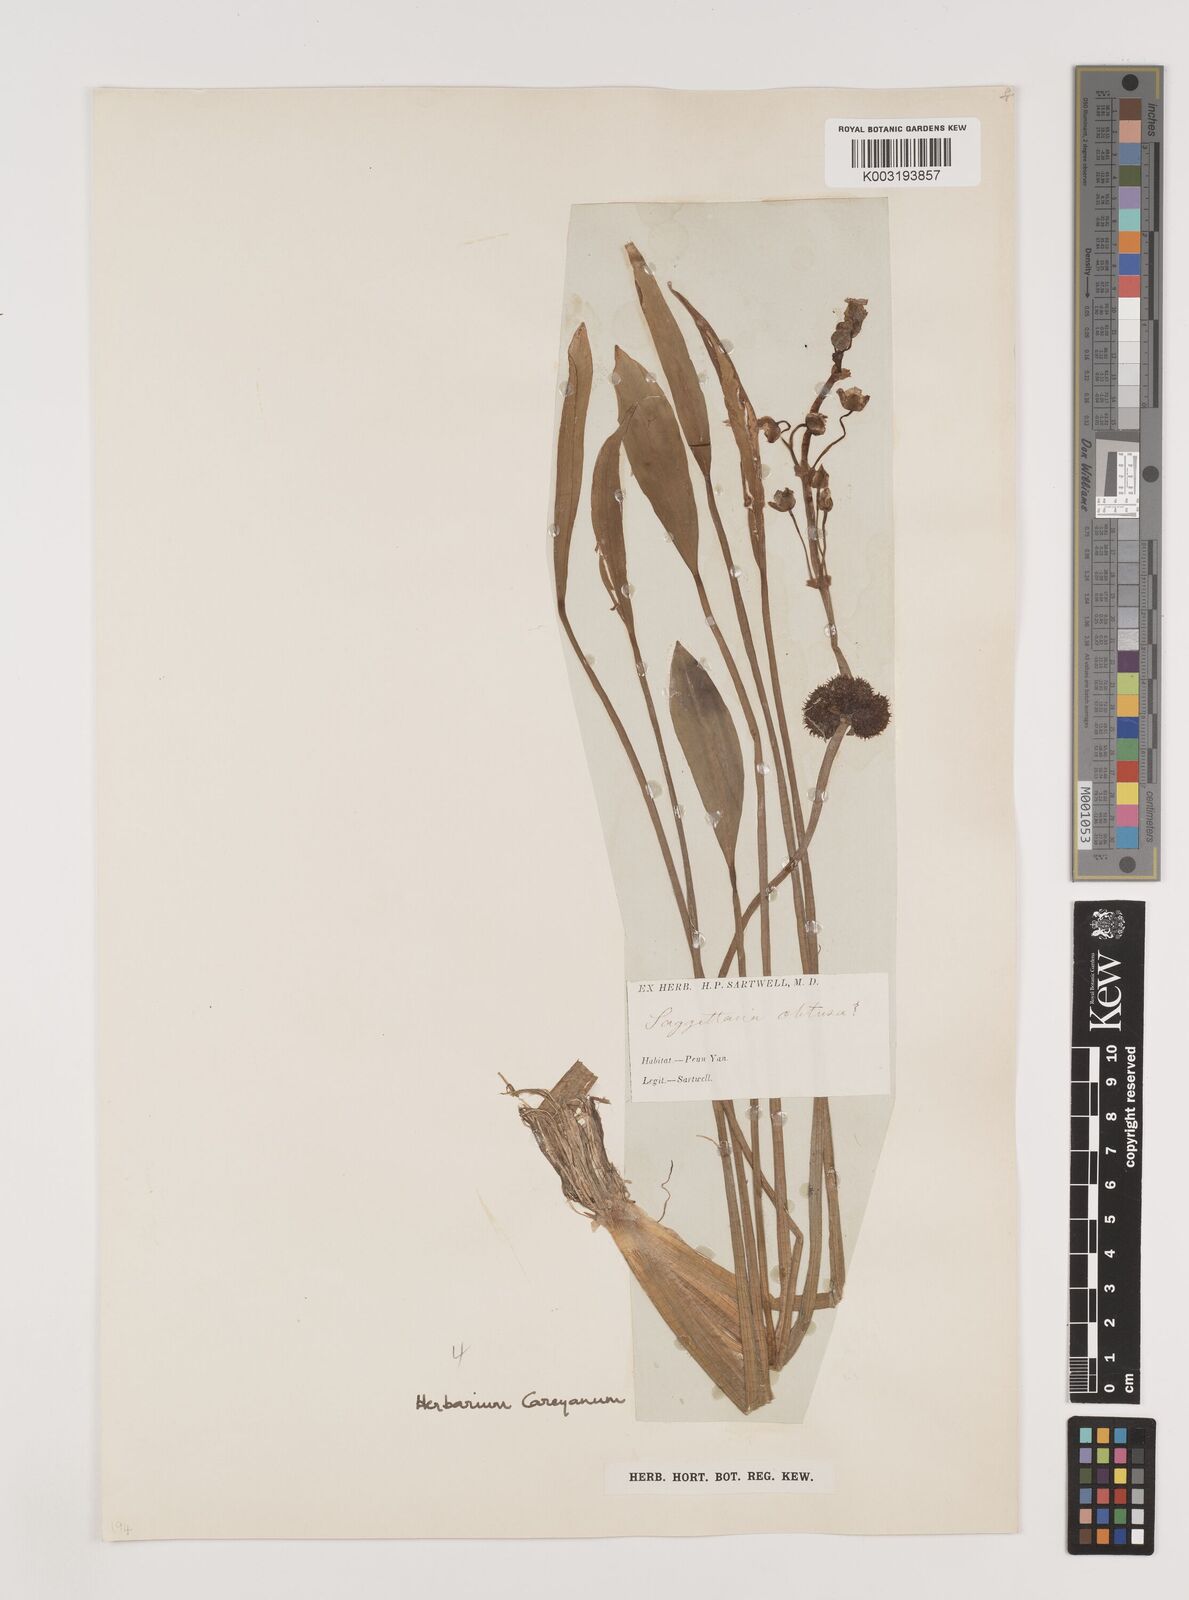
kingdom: Plantae
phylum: Tracheophyta
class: Liliopsida
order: Alismatales
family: Alismataceae
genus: Sagittaria
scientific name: Sagittaria latifolia
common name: Duck-potato
